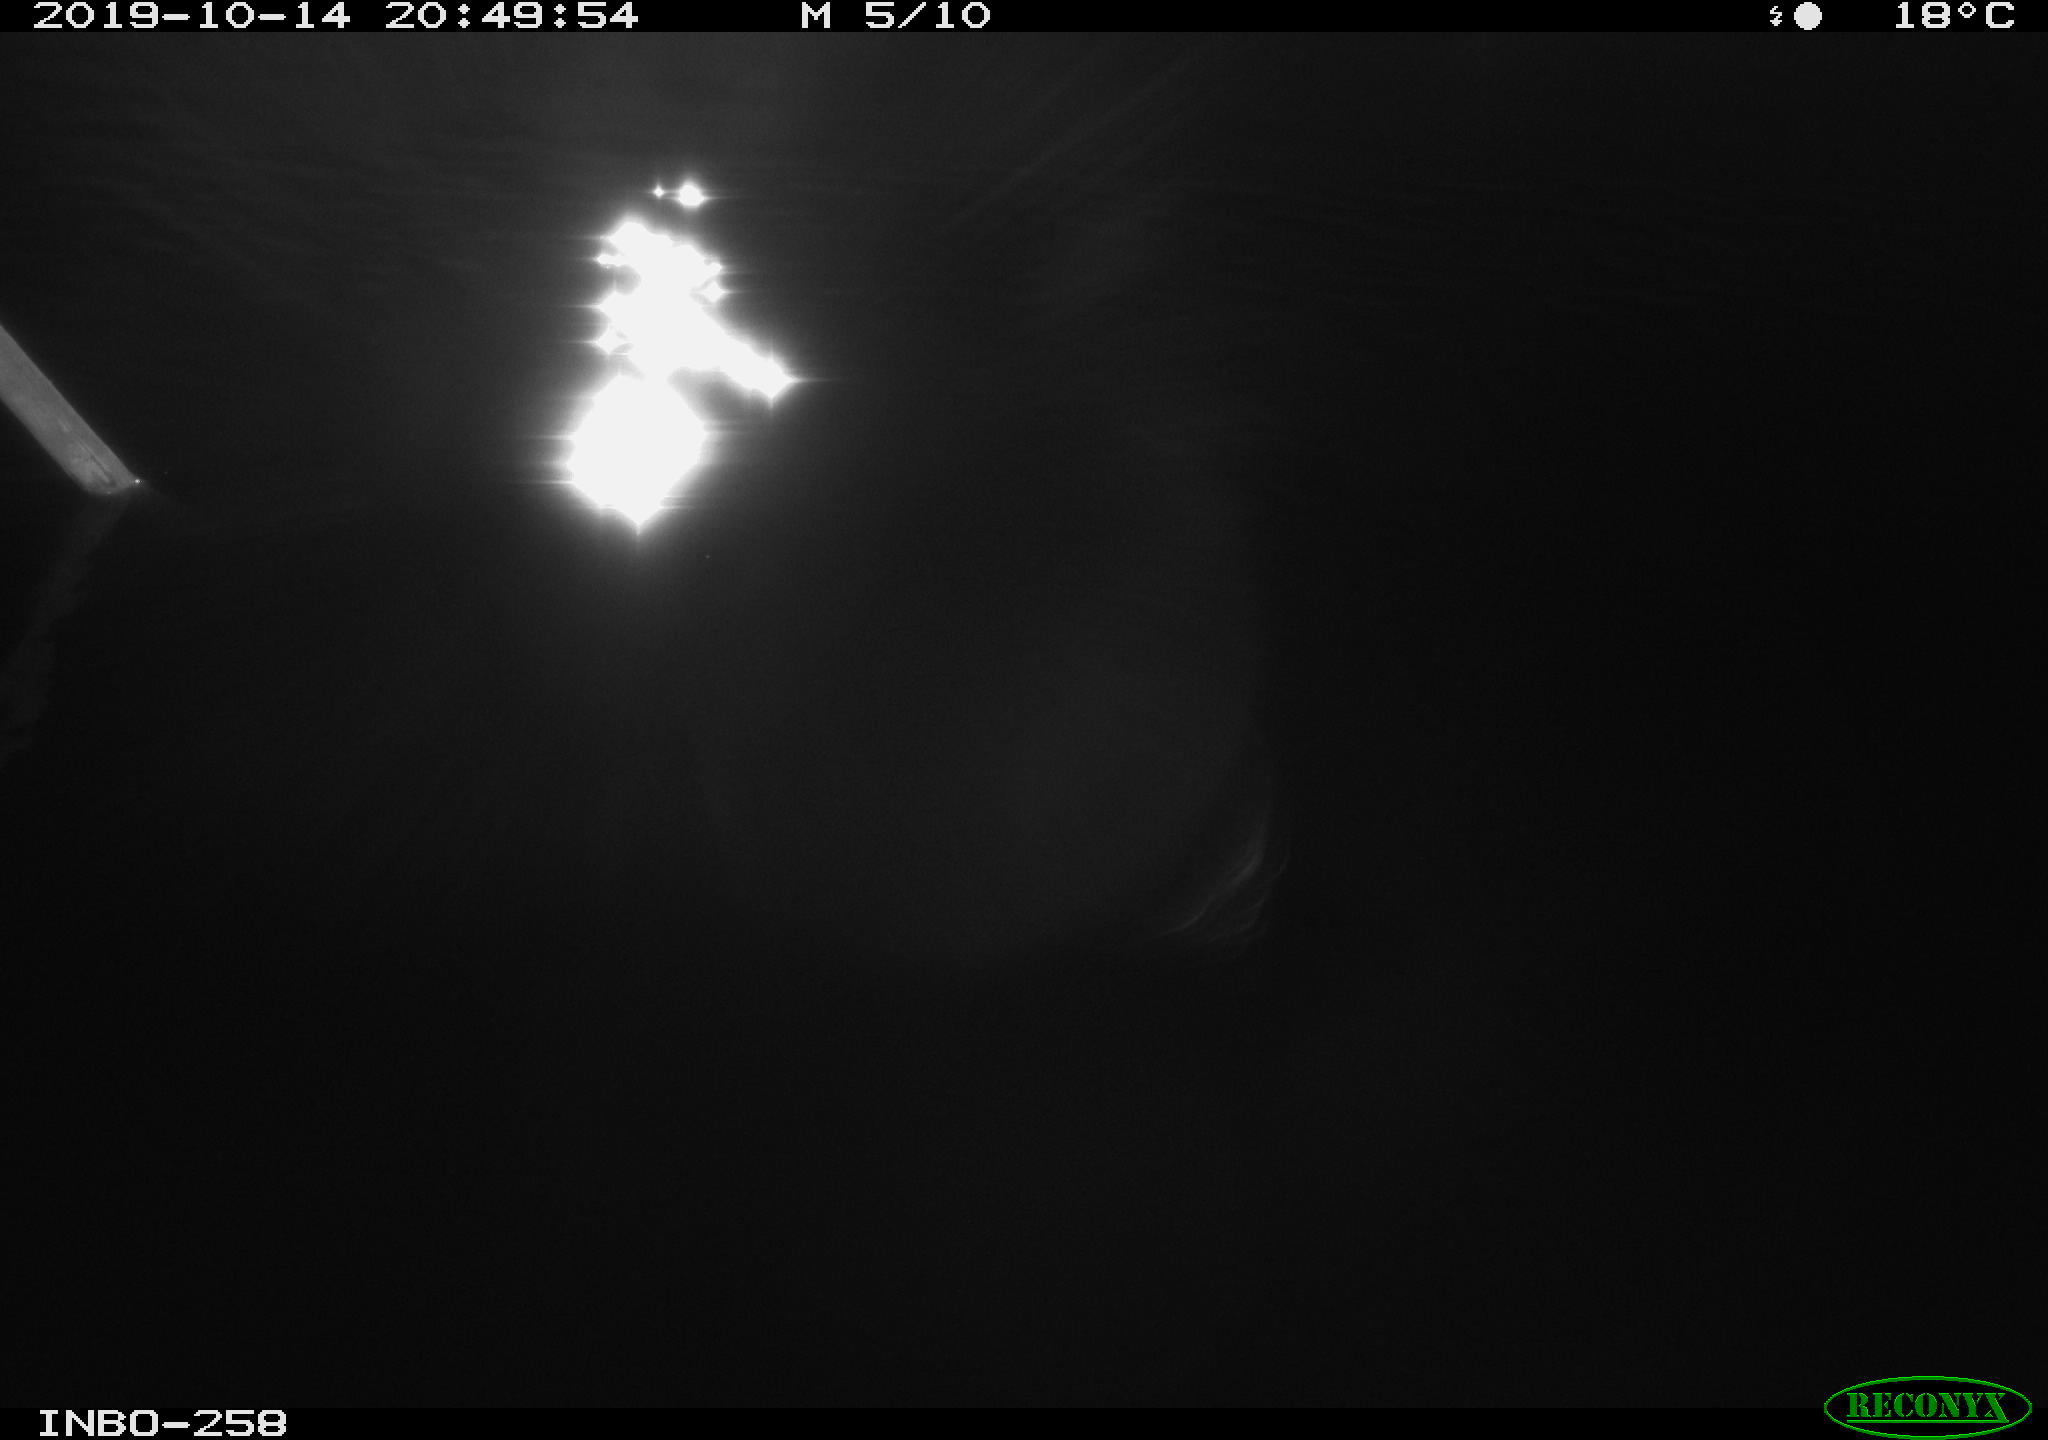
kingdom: Animalia
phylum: Chordata
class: Aves
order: Anseriformes
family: Anatidae
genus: Anas
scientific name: Anas platyrhynchos
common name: Mallard
